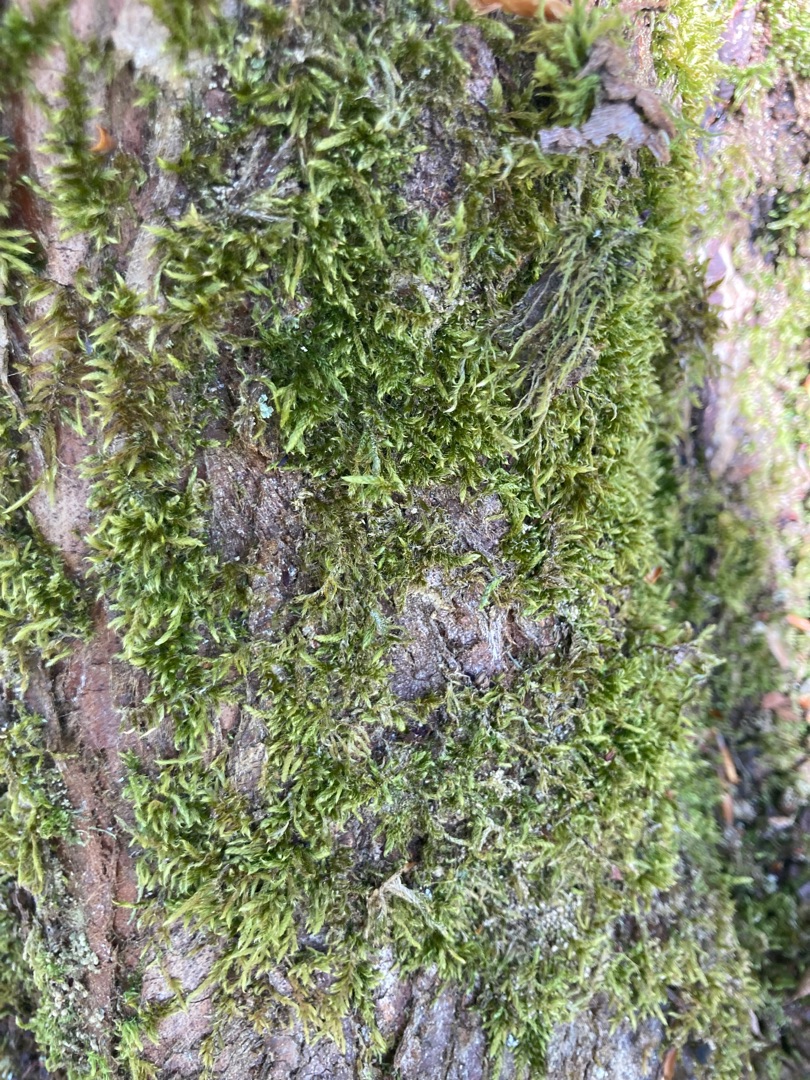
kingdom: Plantae
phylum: Bryophyta
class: Bryopsida
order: Hypnales
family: Hypnaceae
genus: Hypnum
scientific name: Hypnum cupressiforme
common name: Almindelig cypresmos
